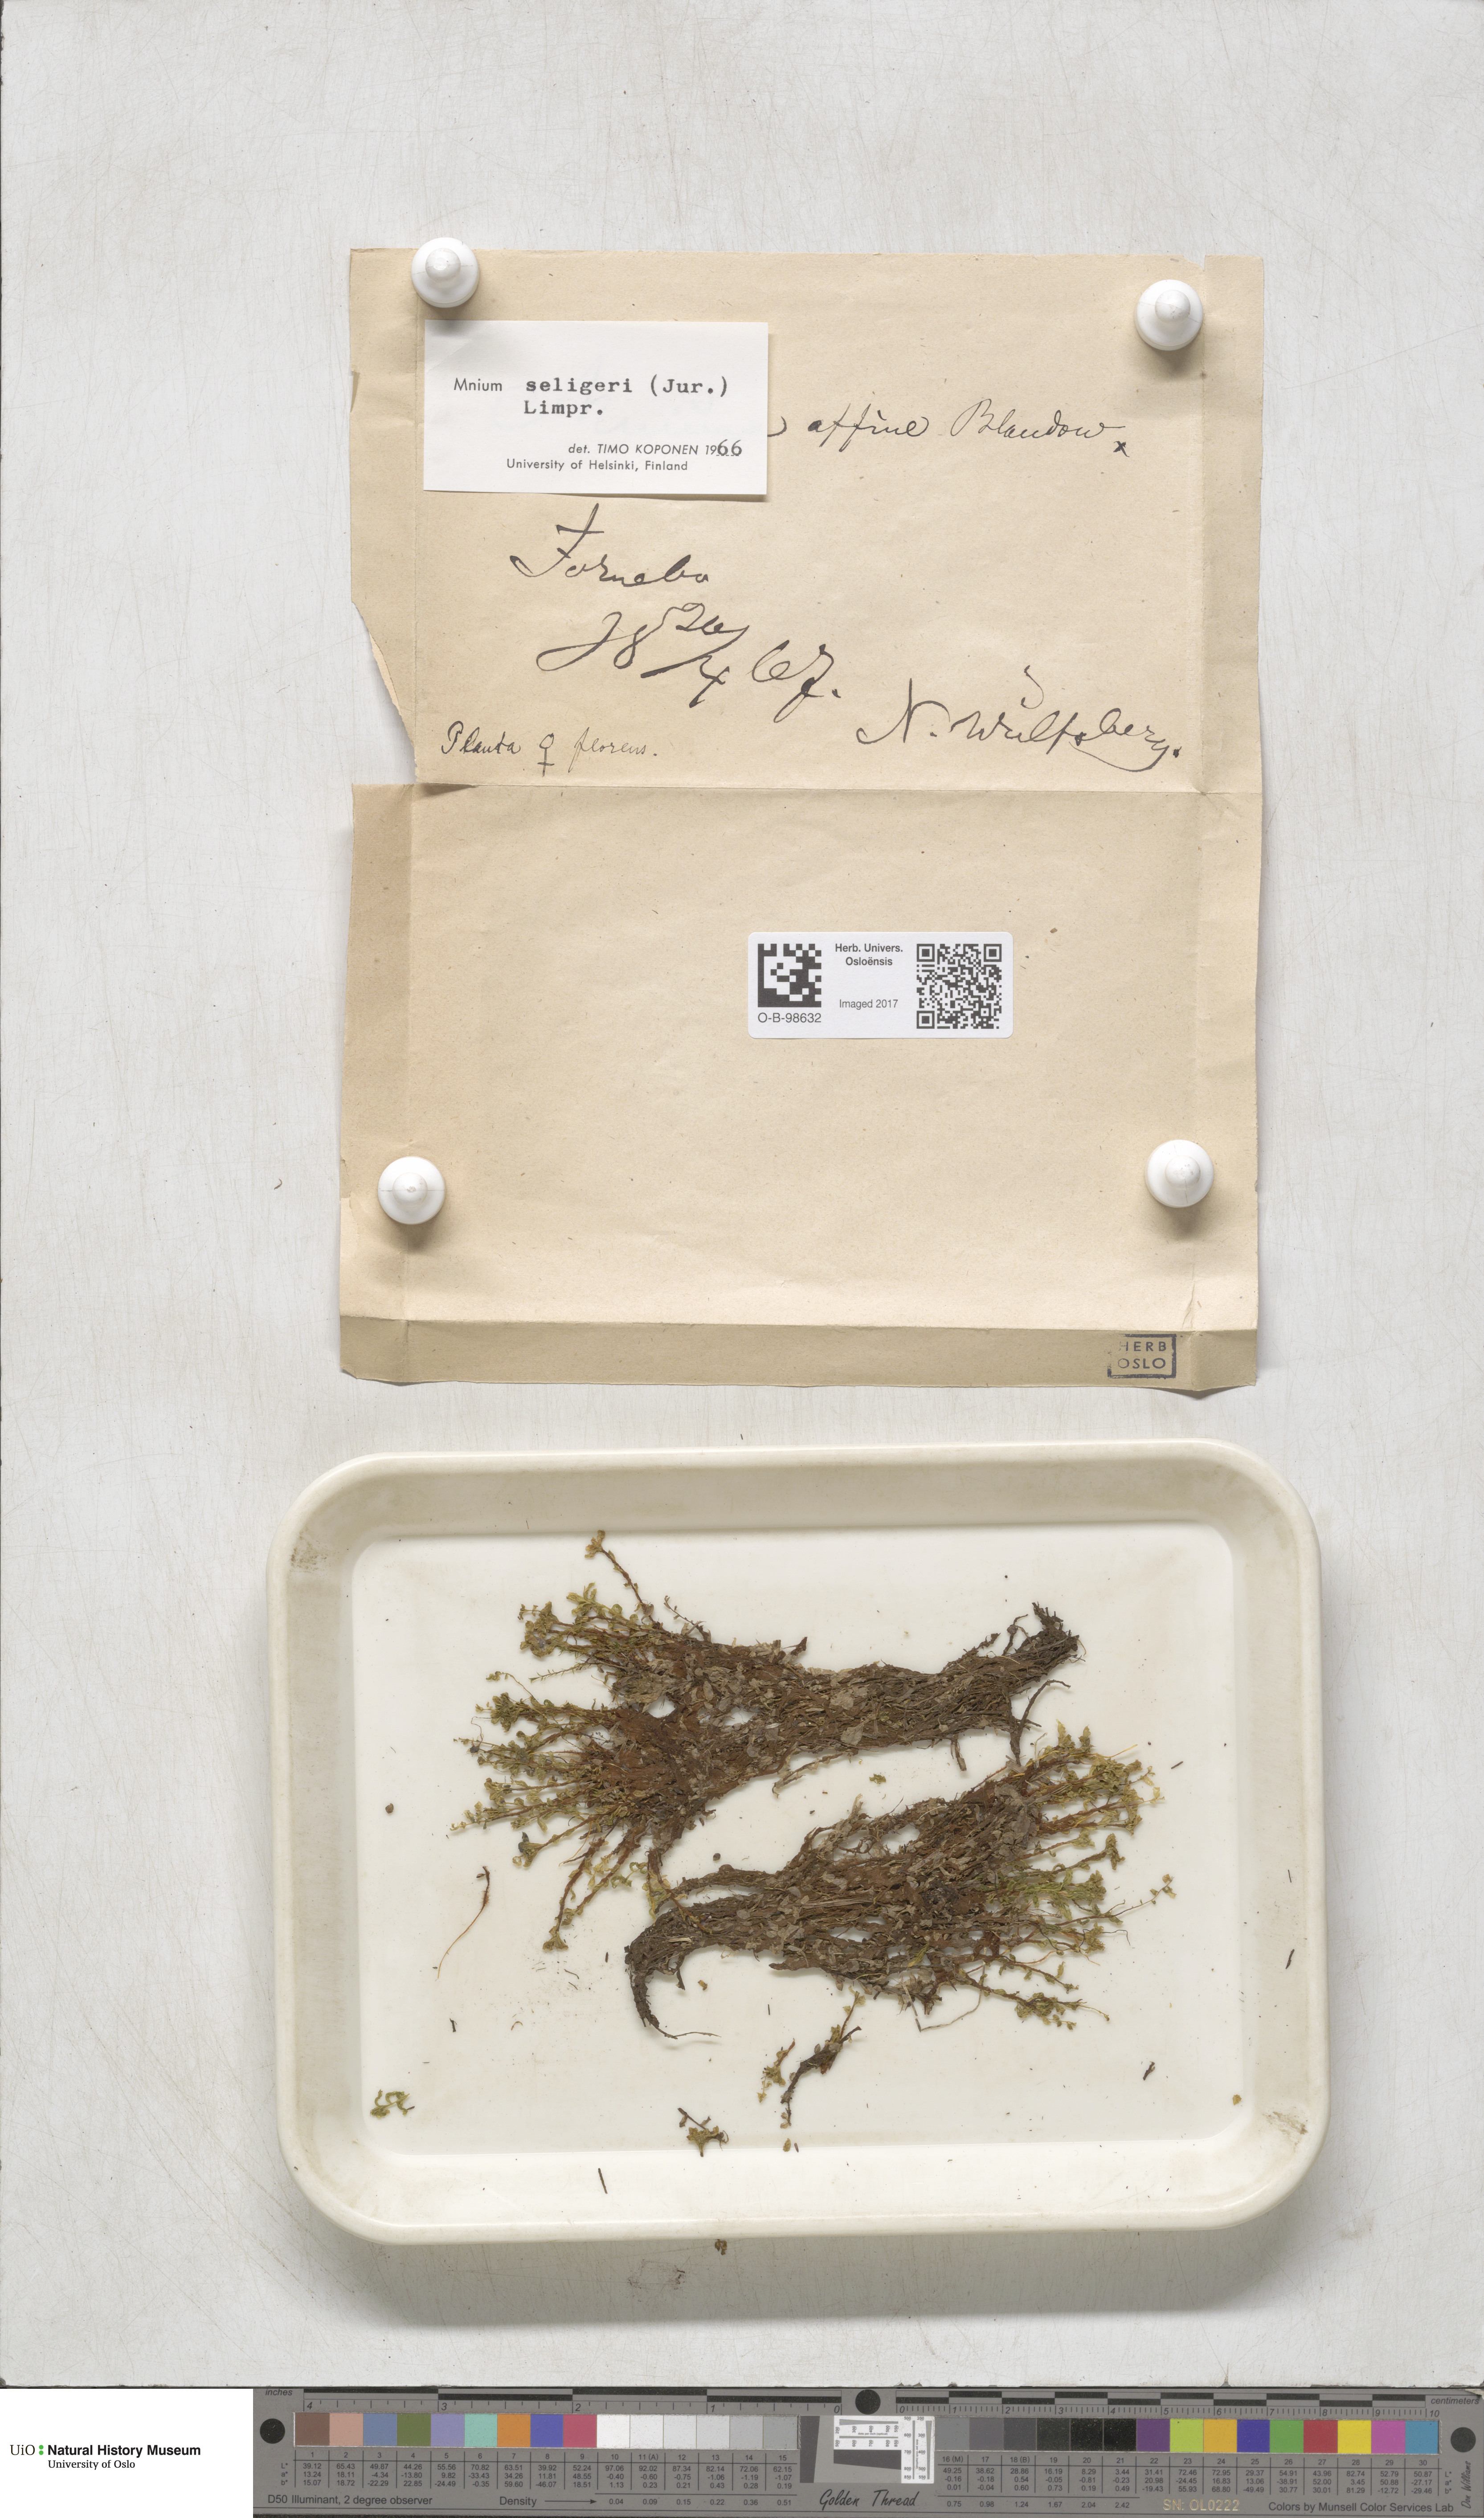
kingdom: Plantae
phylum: Bryophyta
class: Bryopsida
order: Bryales
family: Mniaceae
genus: Plagiomnium
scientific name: Plagiomnium elatum
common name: Tall thyme-moss
